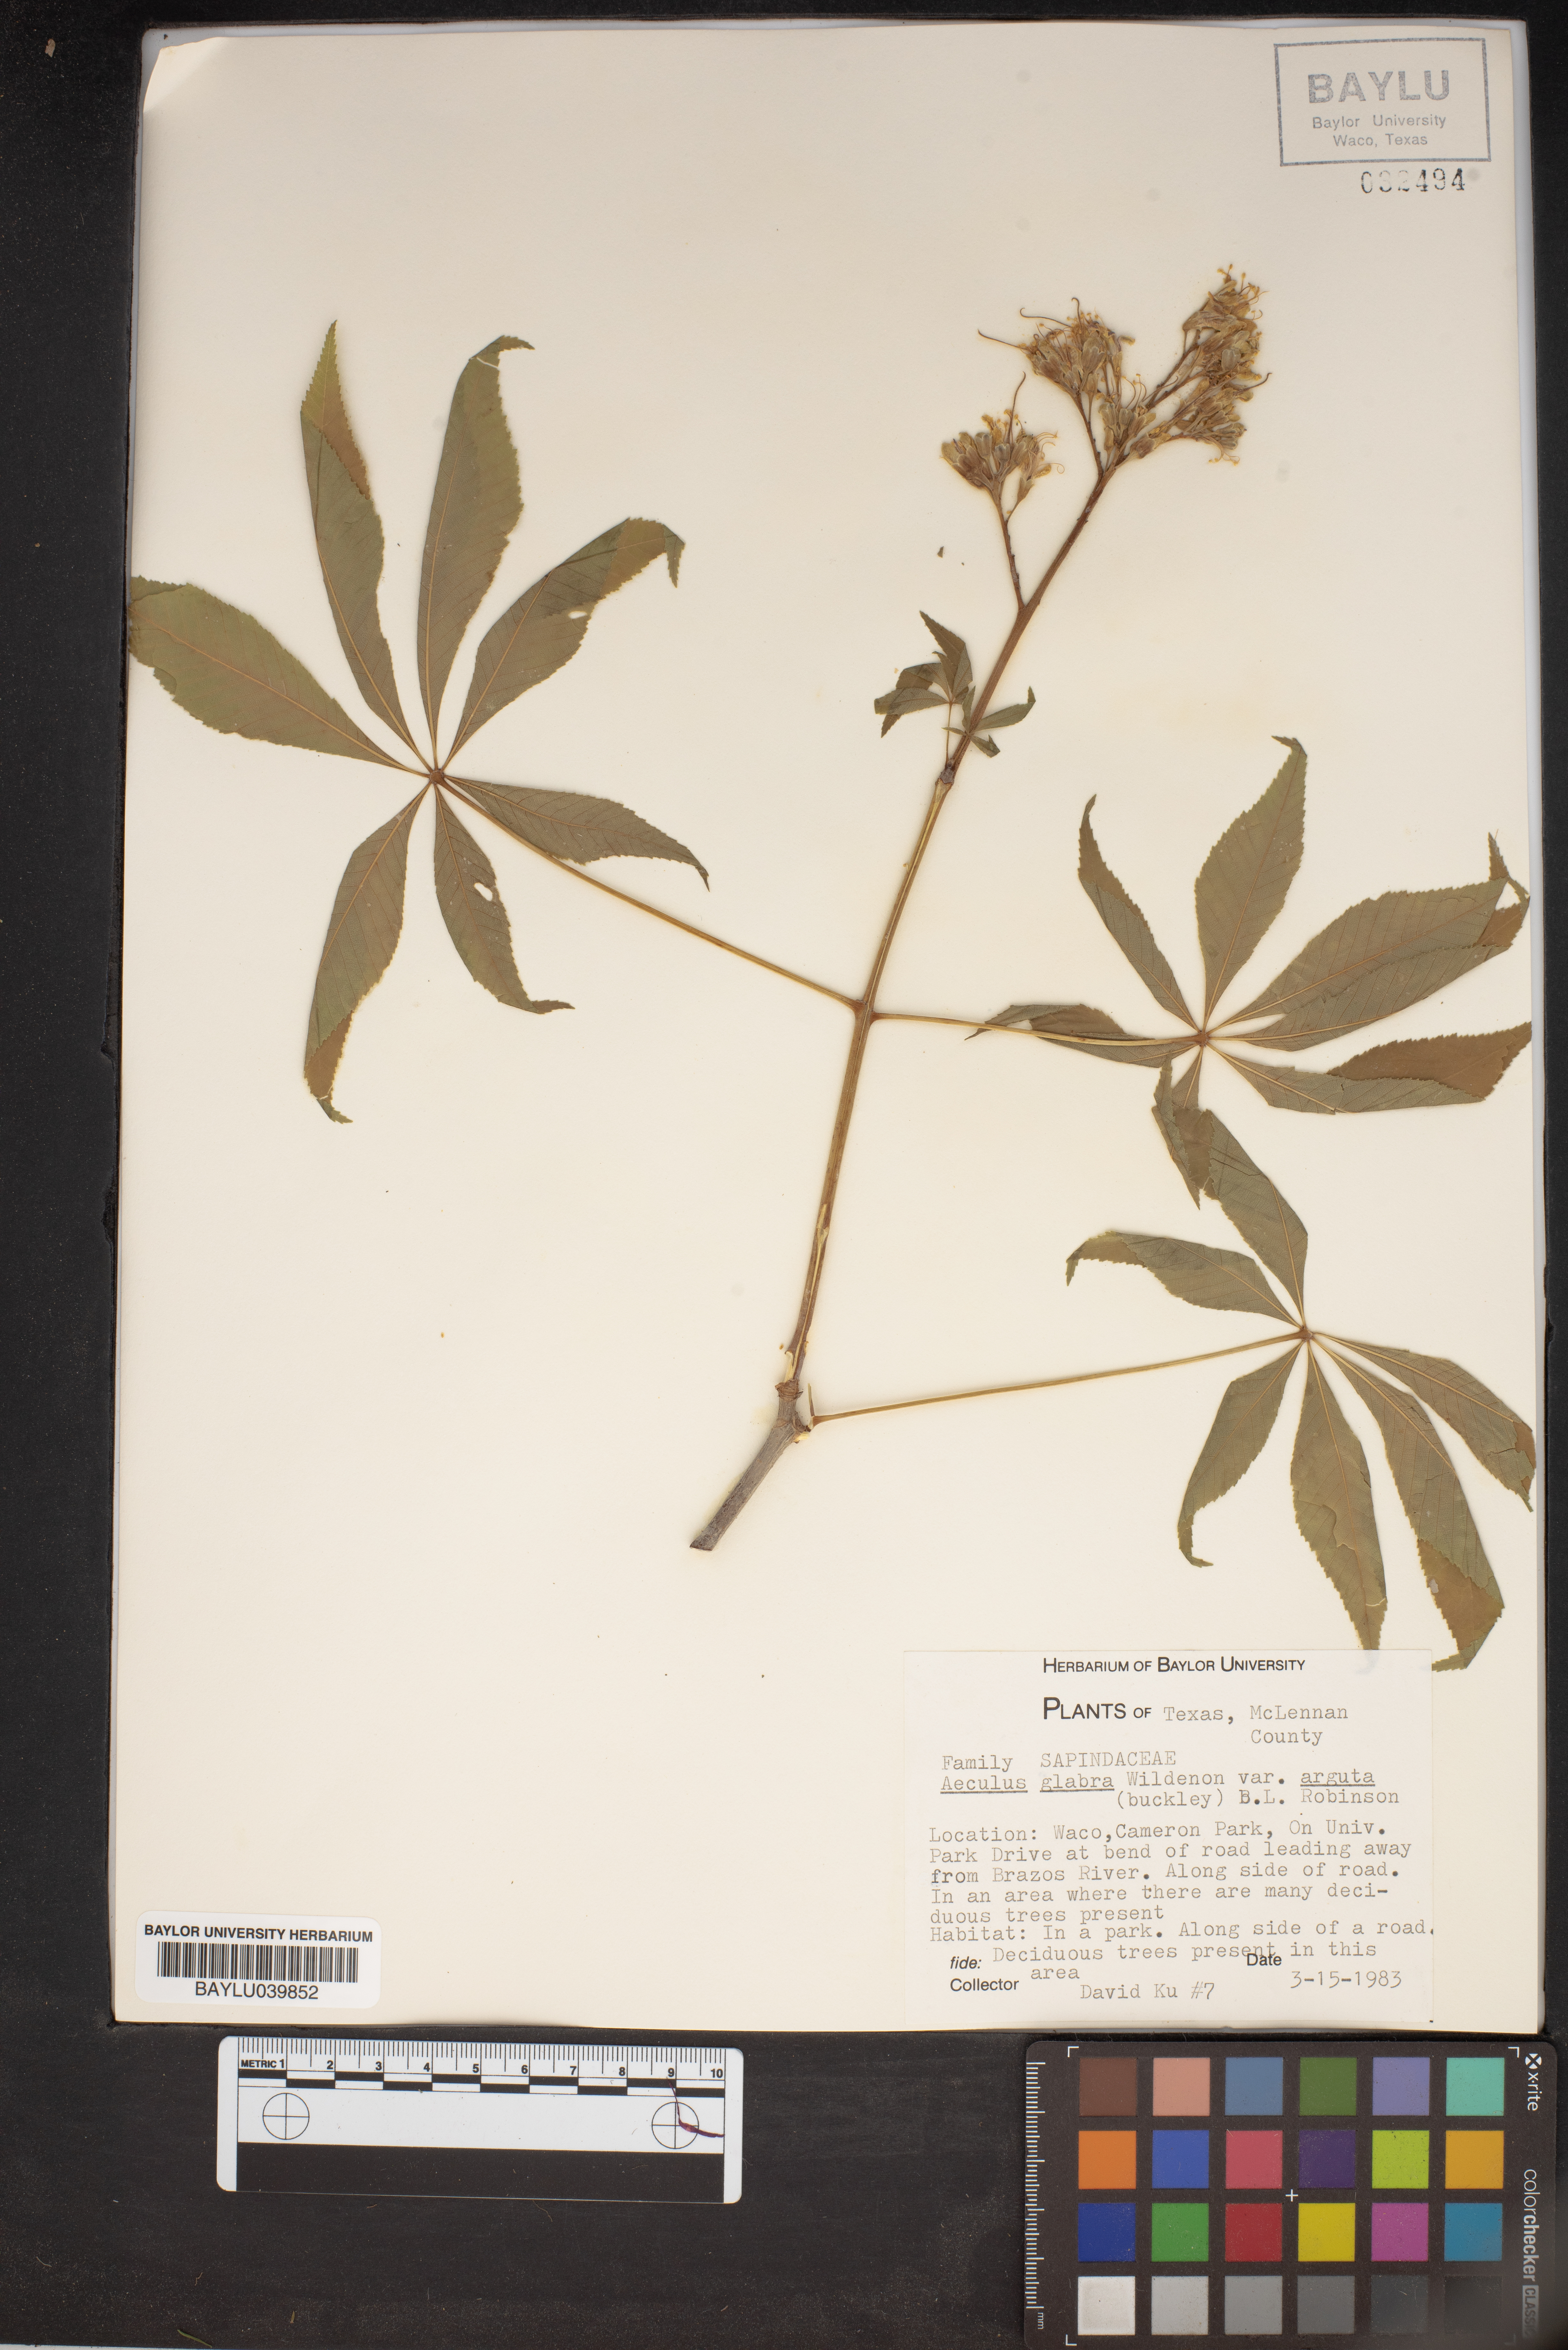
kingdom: Plantae
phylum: Tracheophyta
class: Magnoliopsida
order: Sapindales
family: Sapindaceae
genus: Aesculus
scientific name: Aesculus glabra
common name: Ohio buckeye
